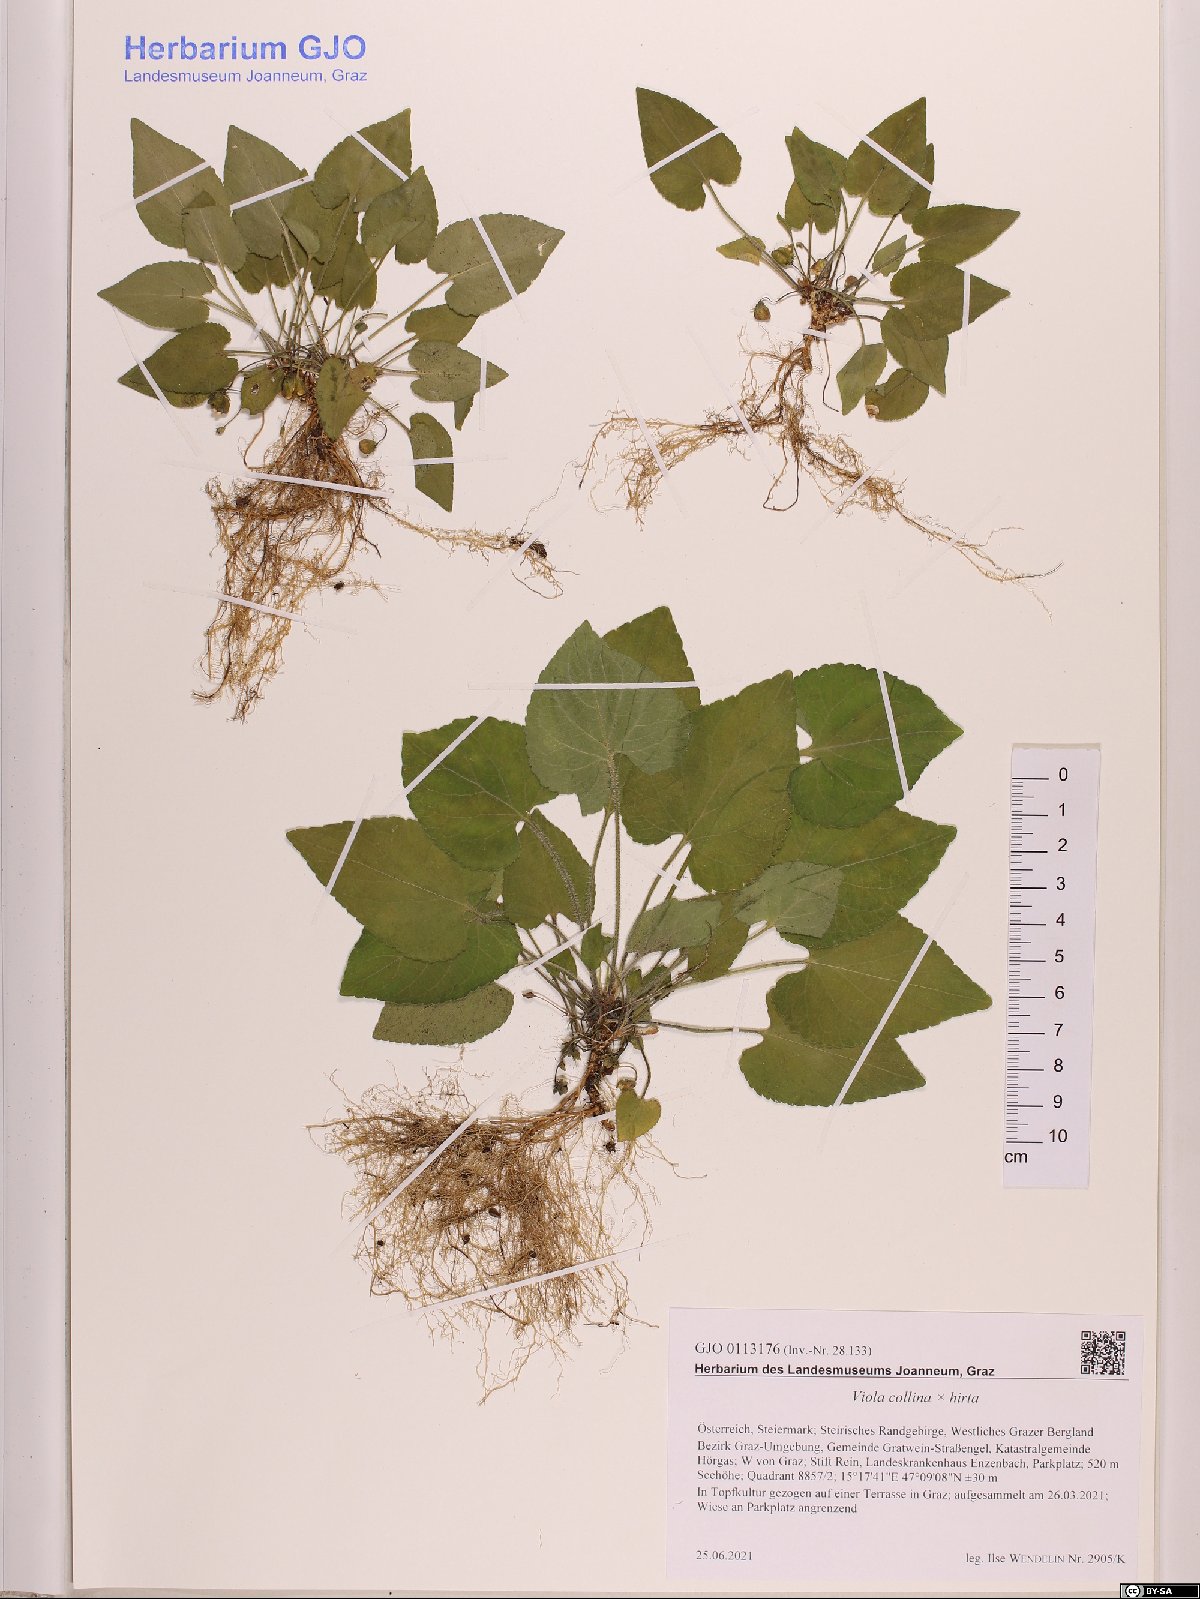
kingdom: Plantae
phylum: Tracheophyta
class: Magnoliopsida
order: Malpighiales
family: Violaceae
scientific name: Violaceae
